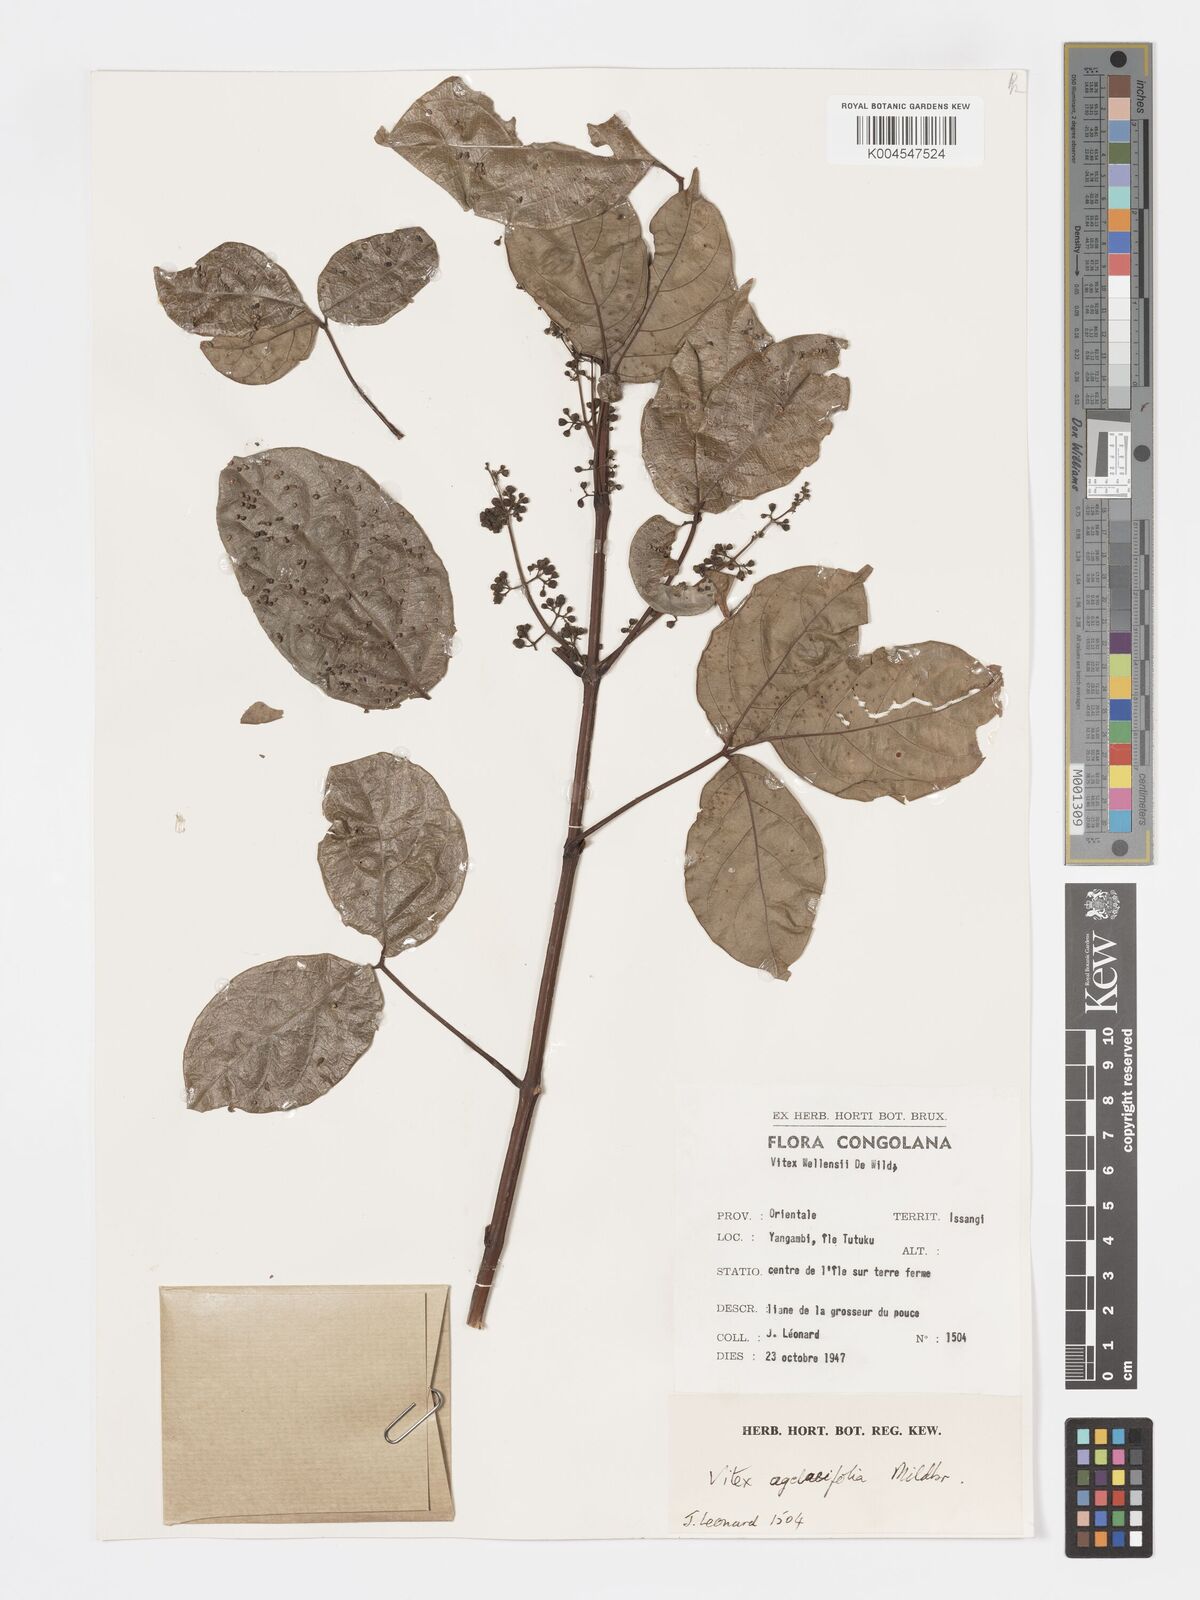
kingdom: Plantae
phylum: Tracheophyta
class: Magnoliopsida
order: Lamiales
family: Lamiaceae
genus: Vitex
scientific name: Vitex agelaeifolia
